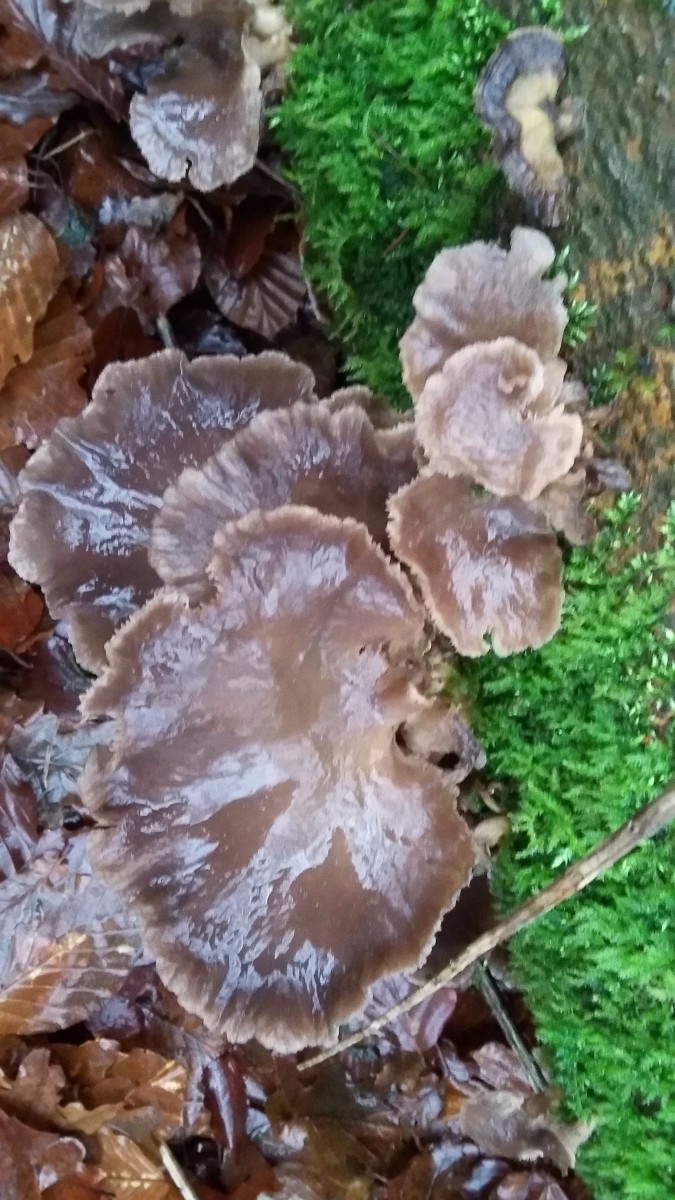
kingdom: Fungi
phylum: Basidiomycota
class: Agaricomycetes
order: Agaricales
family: Pleurotaceae
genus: Pleurotus
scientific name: Pleurotus ostreatus
